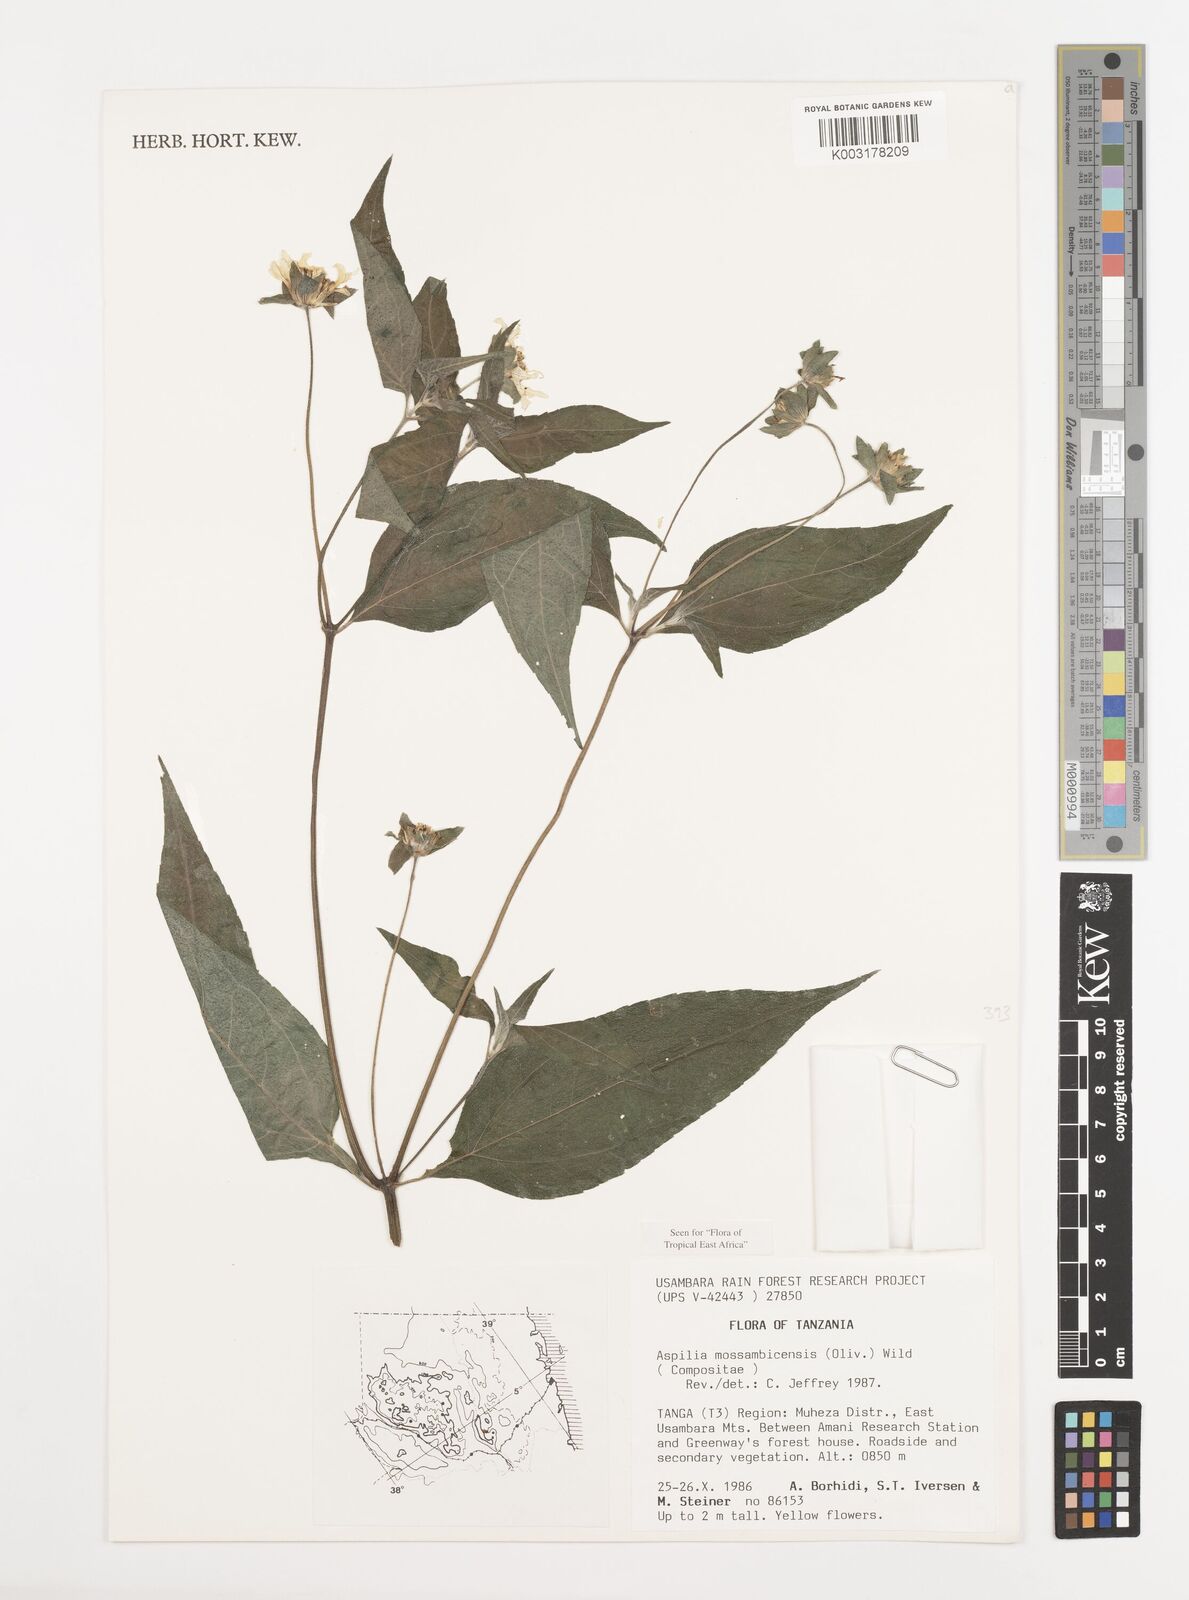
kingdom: Plantae
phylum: Tracheophyta
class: Magnoliopsida
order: Asterales
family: Asteraceae
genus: Aspilia
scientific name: Aspilia mossambicensis
